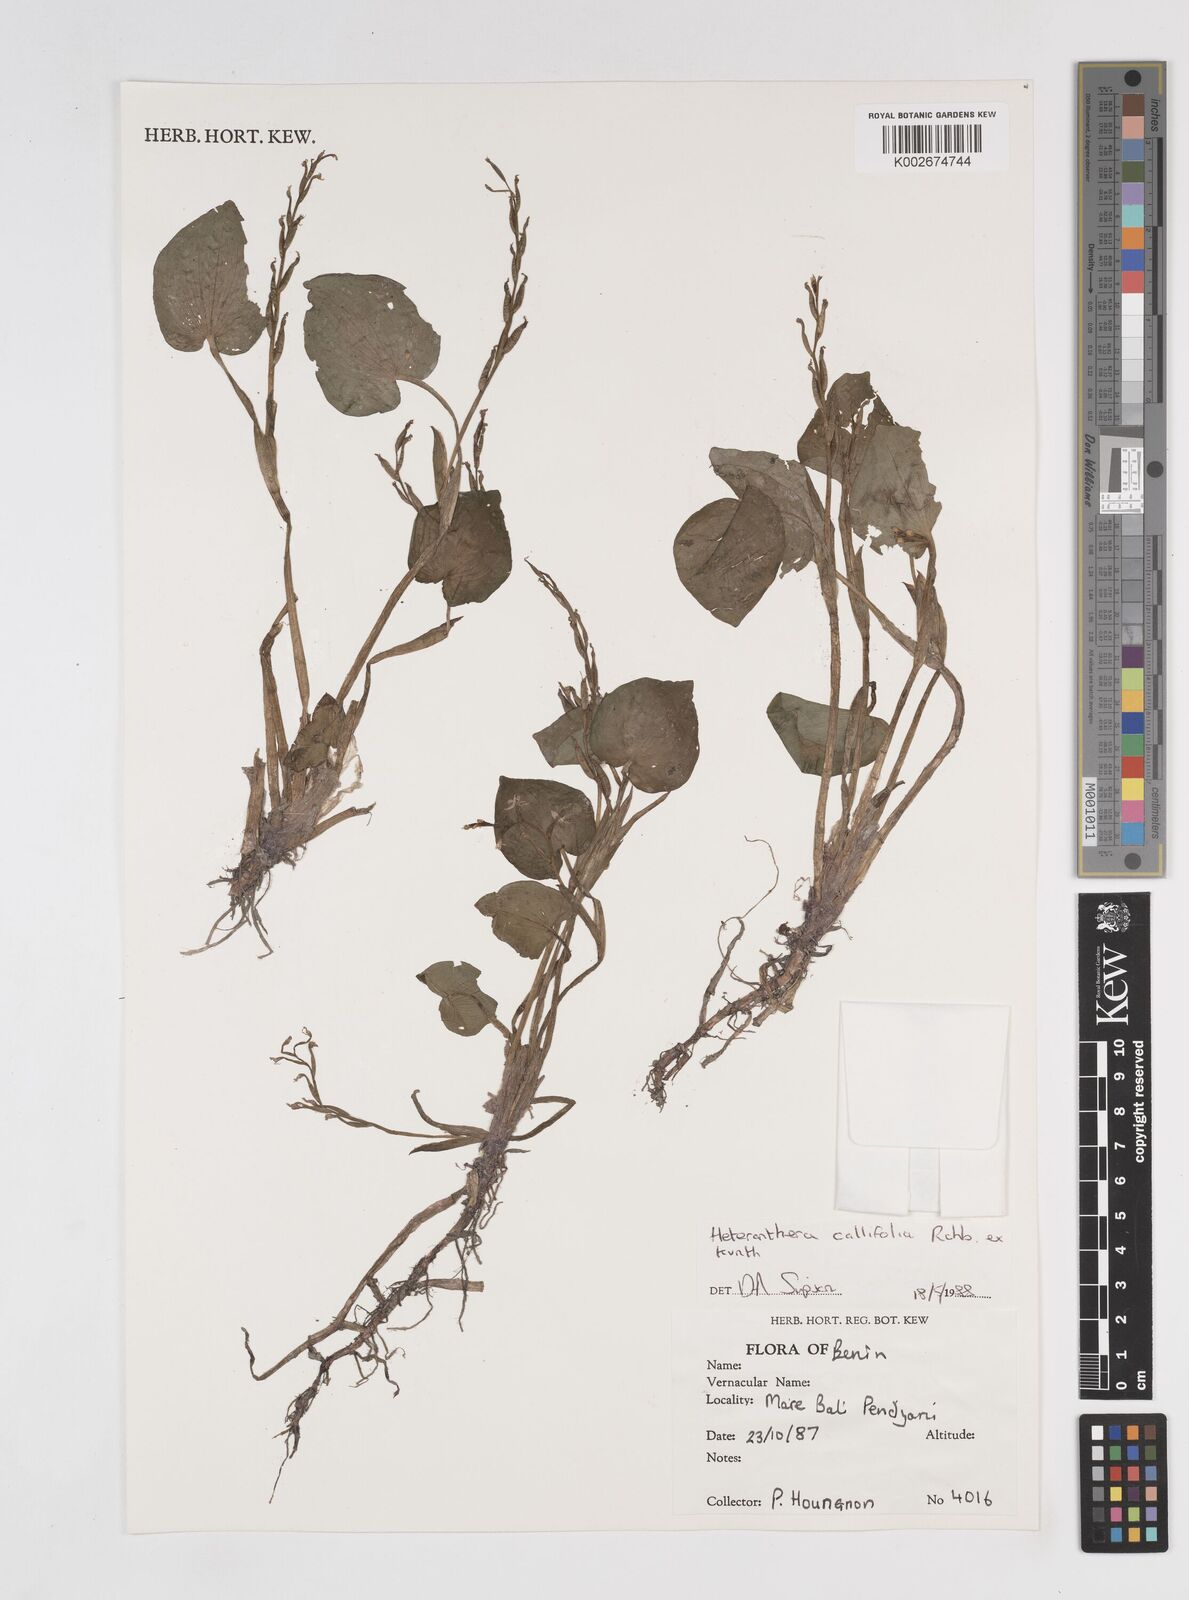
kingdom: Plantae
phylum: Tracheophyta
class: Liliopsida
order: Commelinales
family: Pontederiaceae
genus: Heteranthera
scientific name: Heteranthera callifolia
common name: Mud plantain
